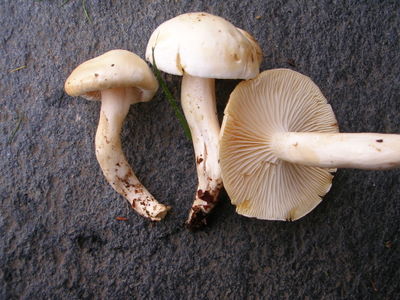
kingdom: Fungi
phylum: Basidiomycota
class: Agaricomycetes
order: Agaricales
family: Hygrophoraceae
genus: Hygrophorus
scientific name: Hygrophorus discoxanthus
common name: ildelugtende sneglehat
